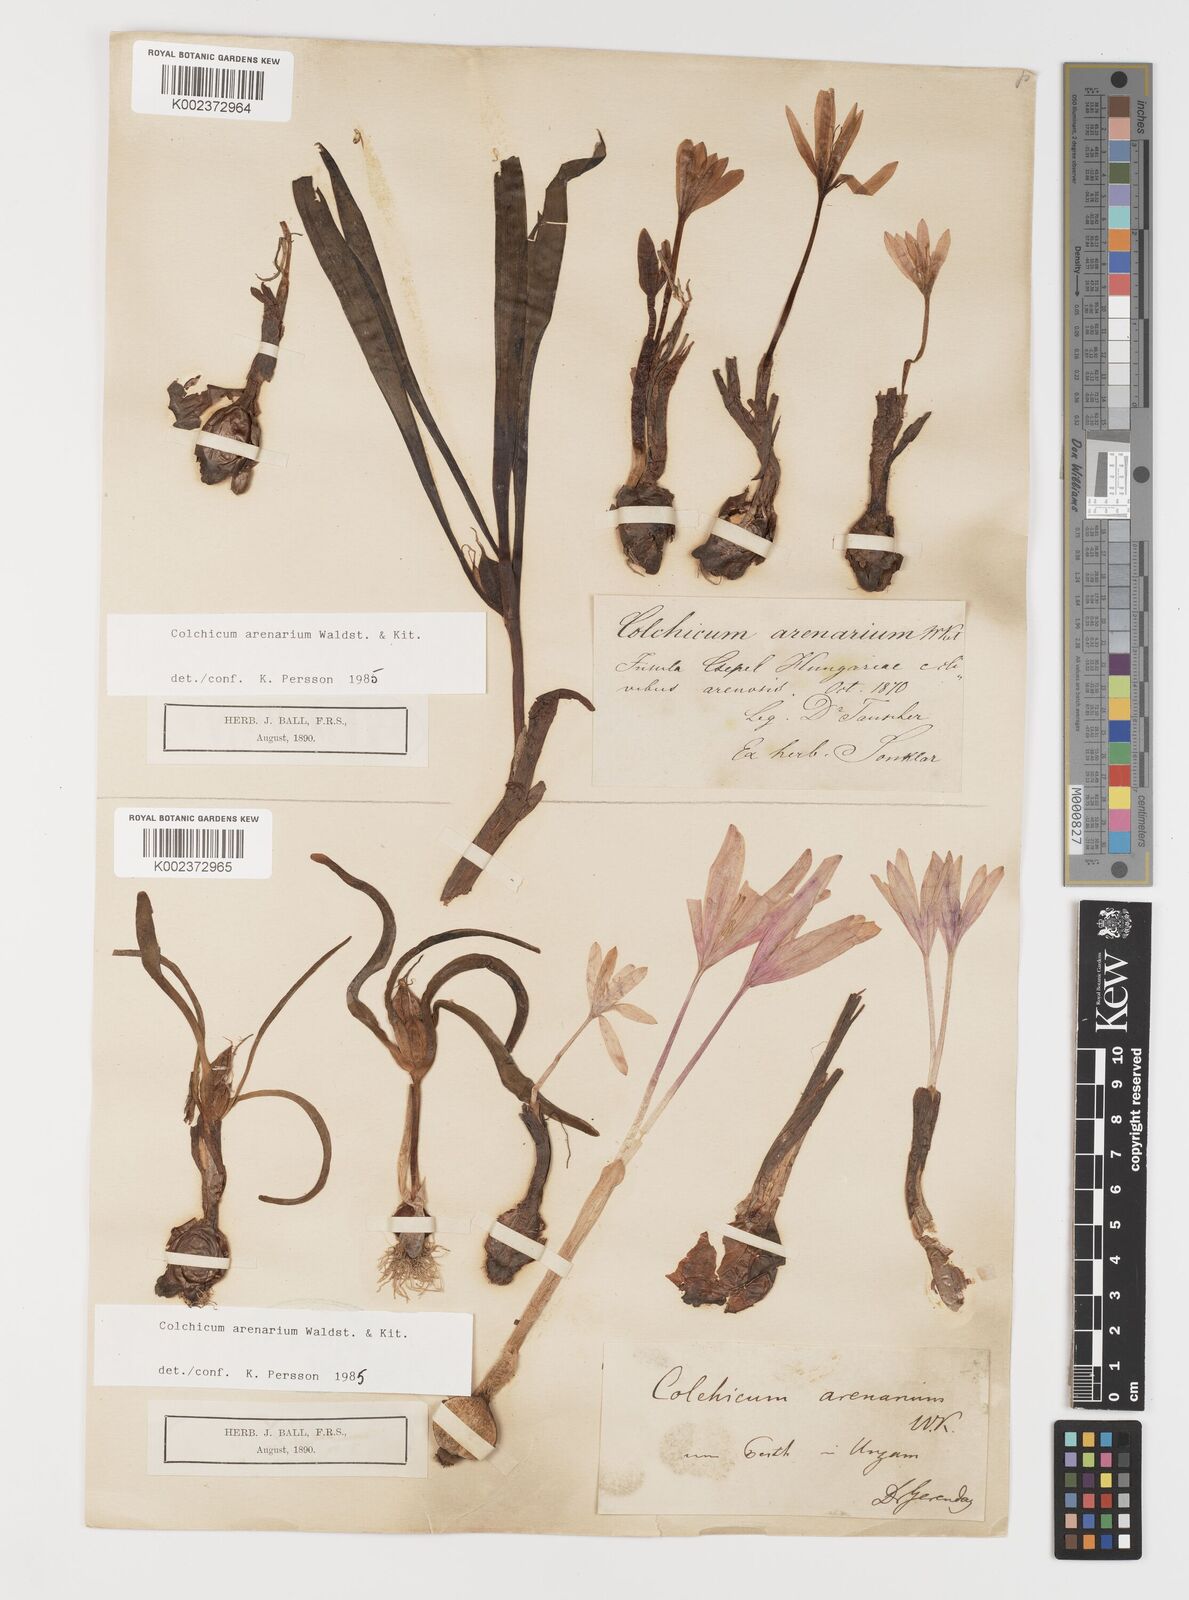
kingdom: Plantae
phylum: Tracheophyta
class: Liliopsida
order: Liliales
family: Colchicaceae
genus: Colchicum
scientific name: Colchicum arenarium
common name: Sand saffron
